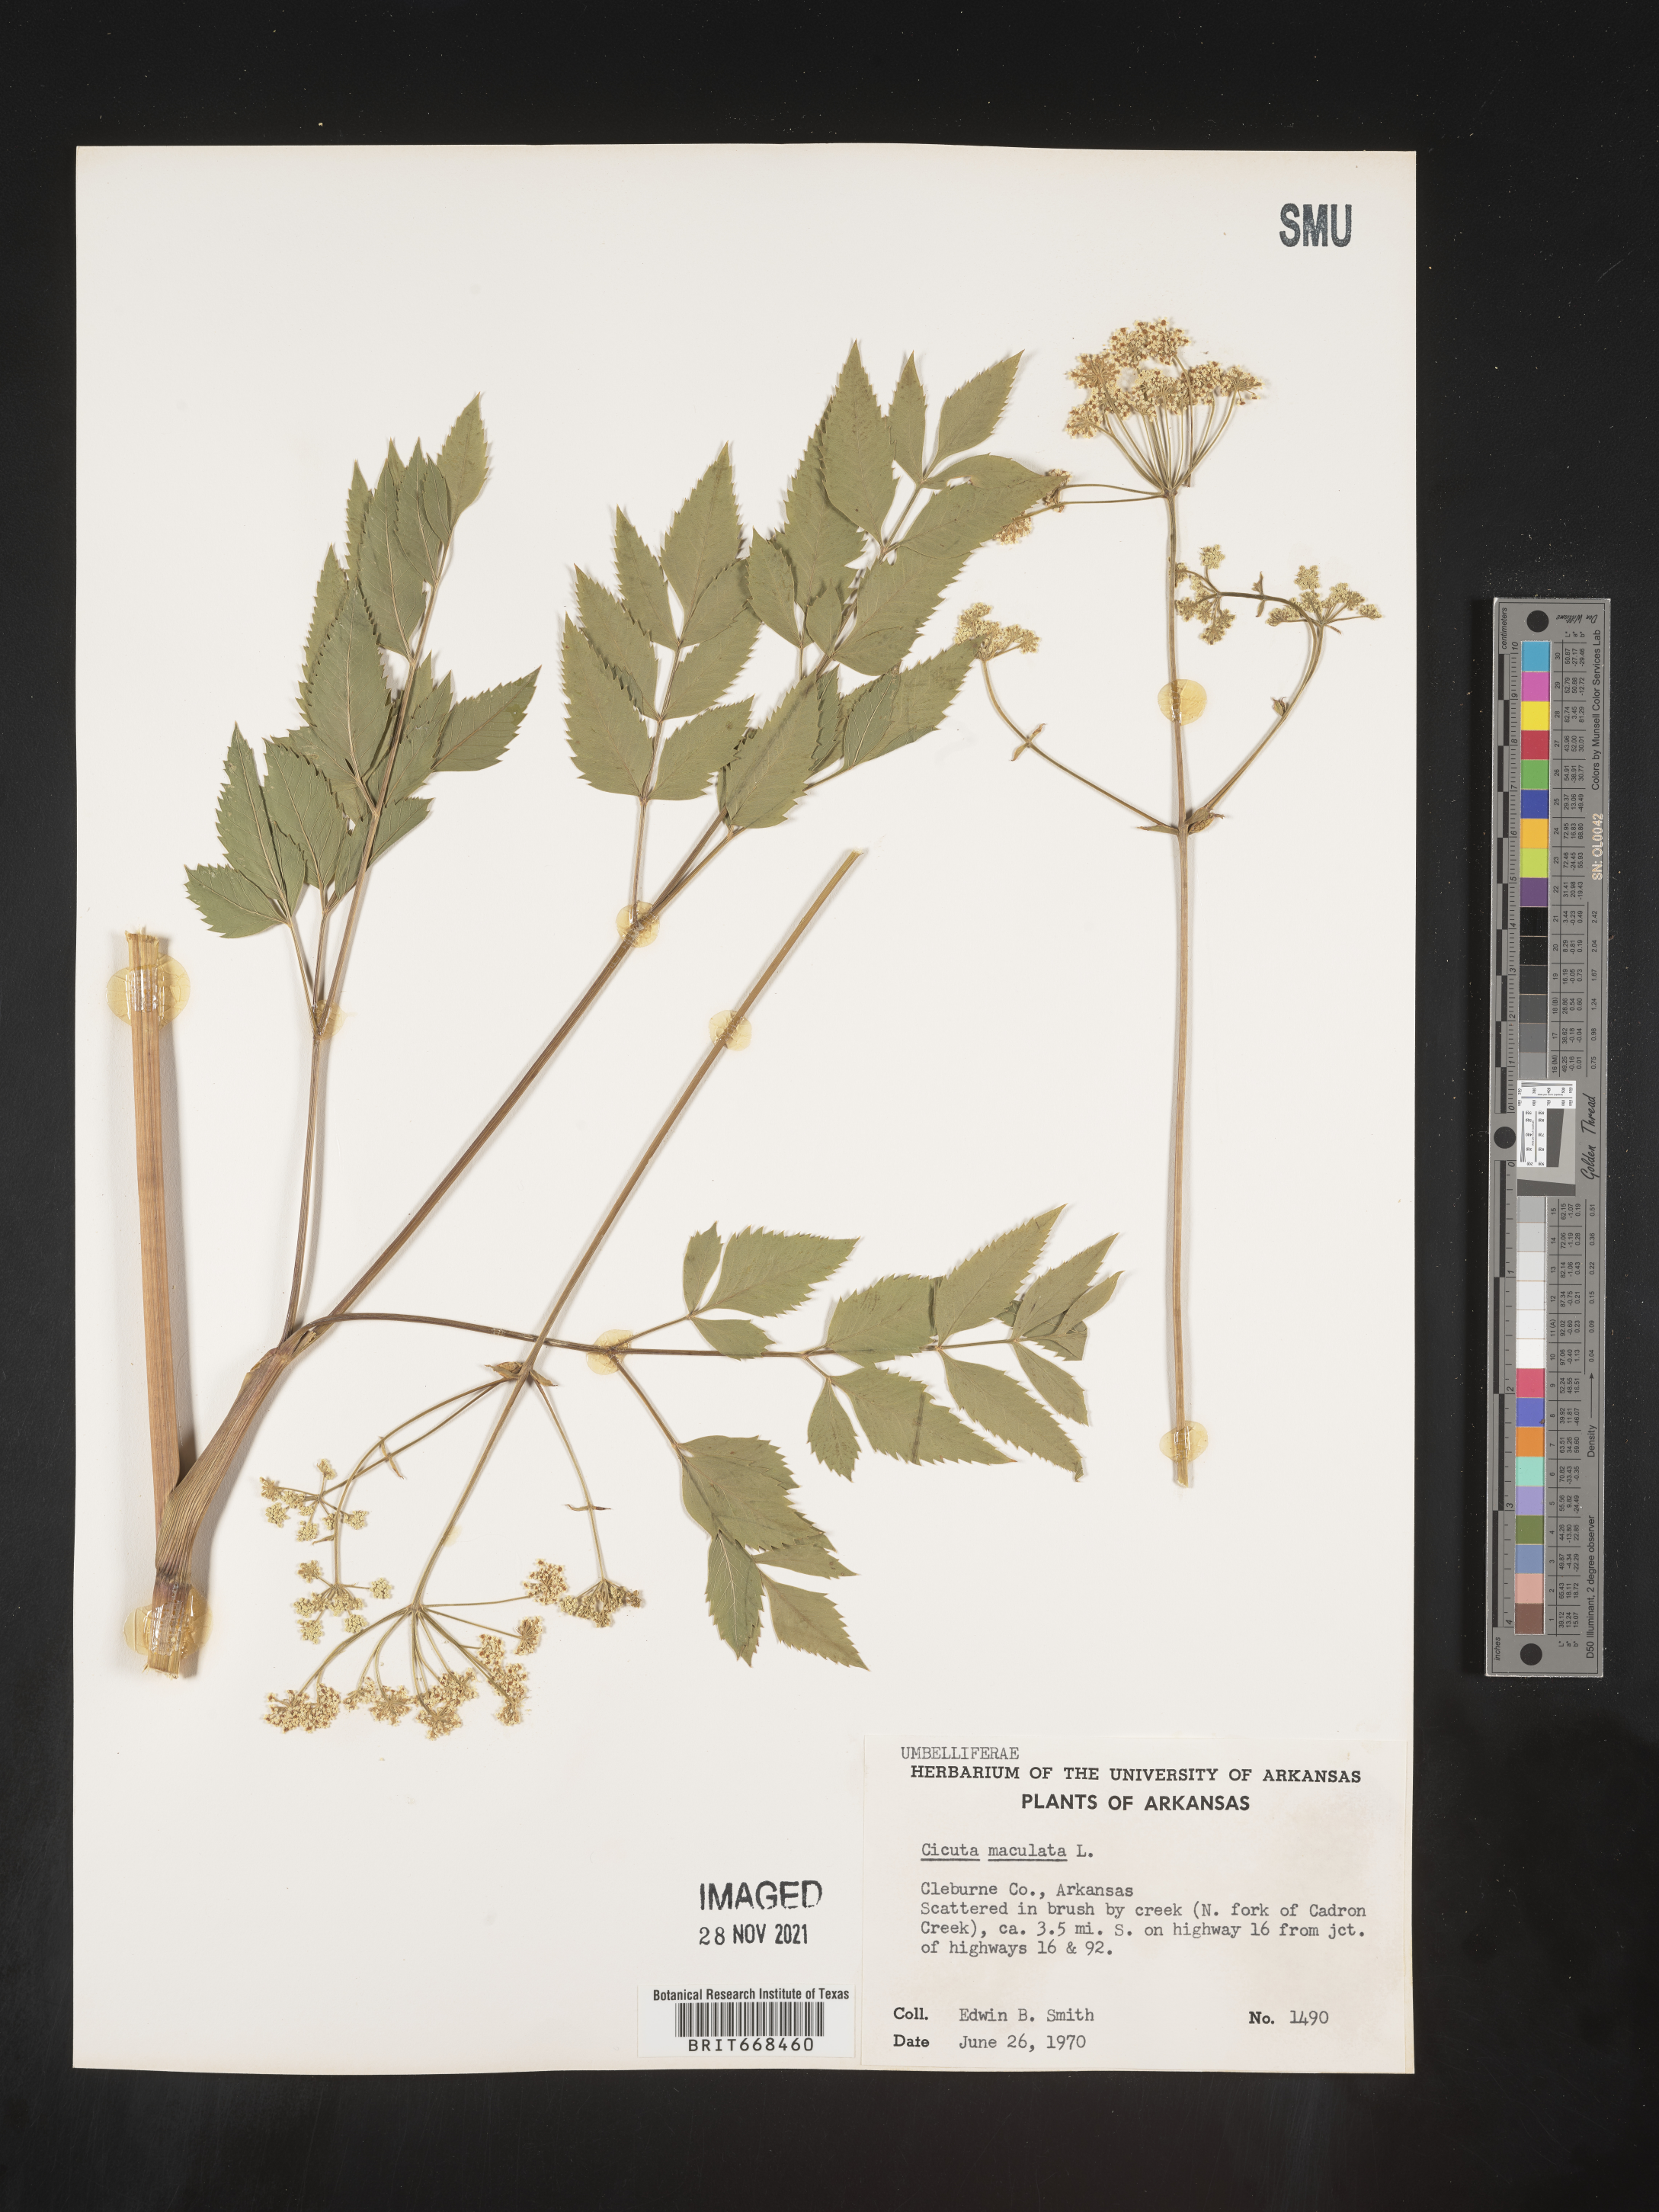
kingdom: Plantae
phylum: Tracheophyta
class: Magnoliopsida
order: Apiales
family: Apiaceae
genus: Cicuta
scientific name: Cicuta maculata
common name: Spotted cowbane
